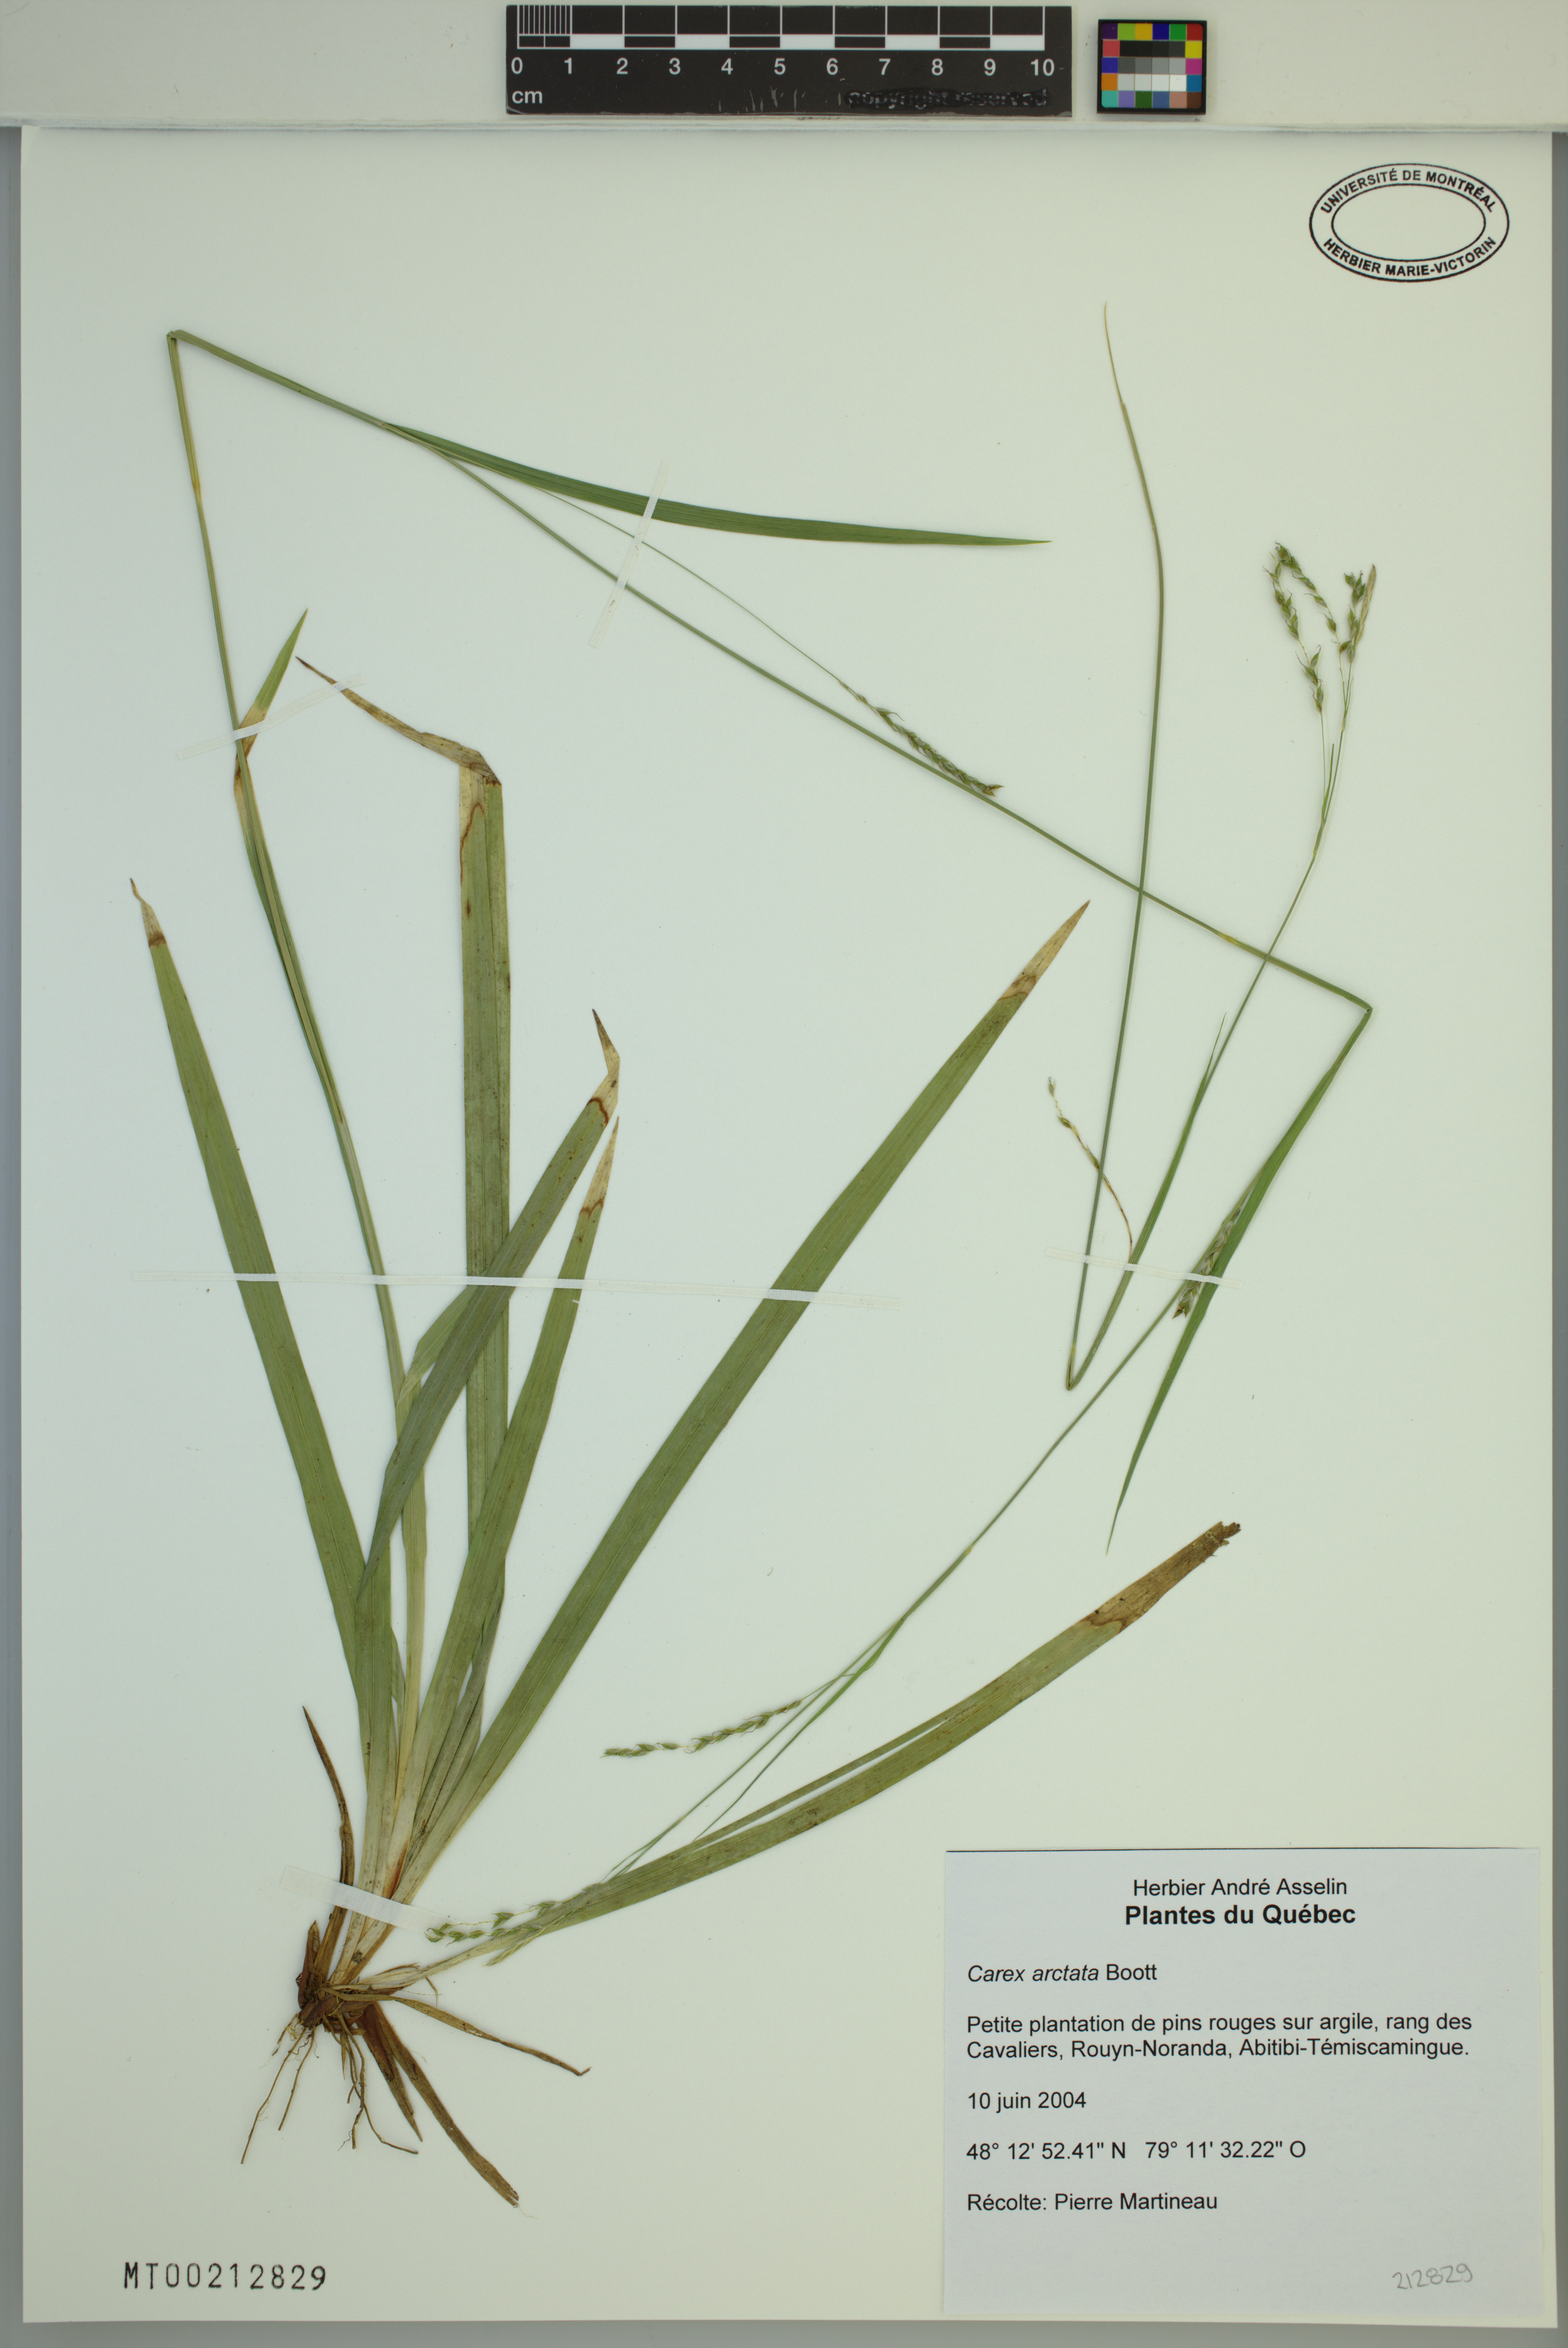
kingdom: Plantae
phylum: Tracheophyta
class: Liliopsida
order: Poales
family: Cyperaceae
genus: Carex
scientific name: Carex arctata
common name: Black sedge
